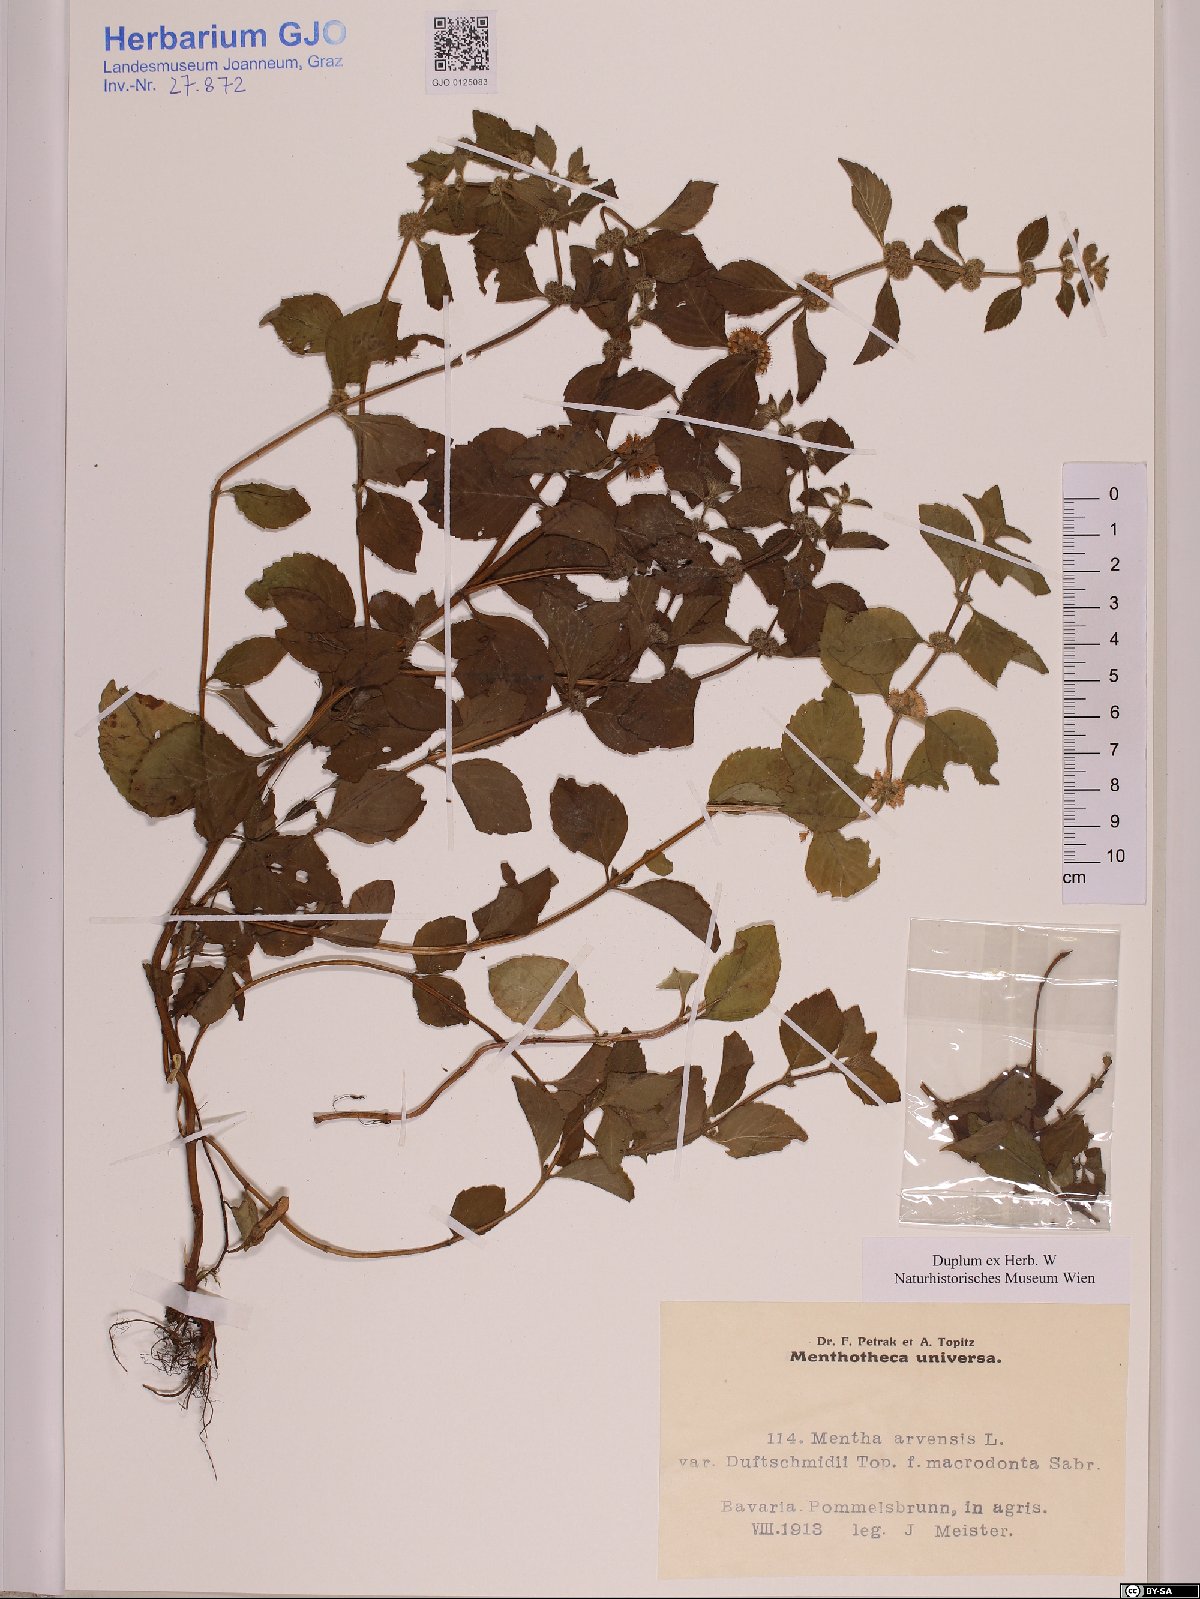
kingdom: Plantae
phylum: Tracheophyta
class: Magnoliopsida
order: Lamiales
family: Lamiaceae
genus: Mentha
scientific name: Mentha arvensis
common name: Corn mint
